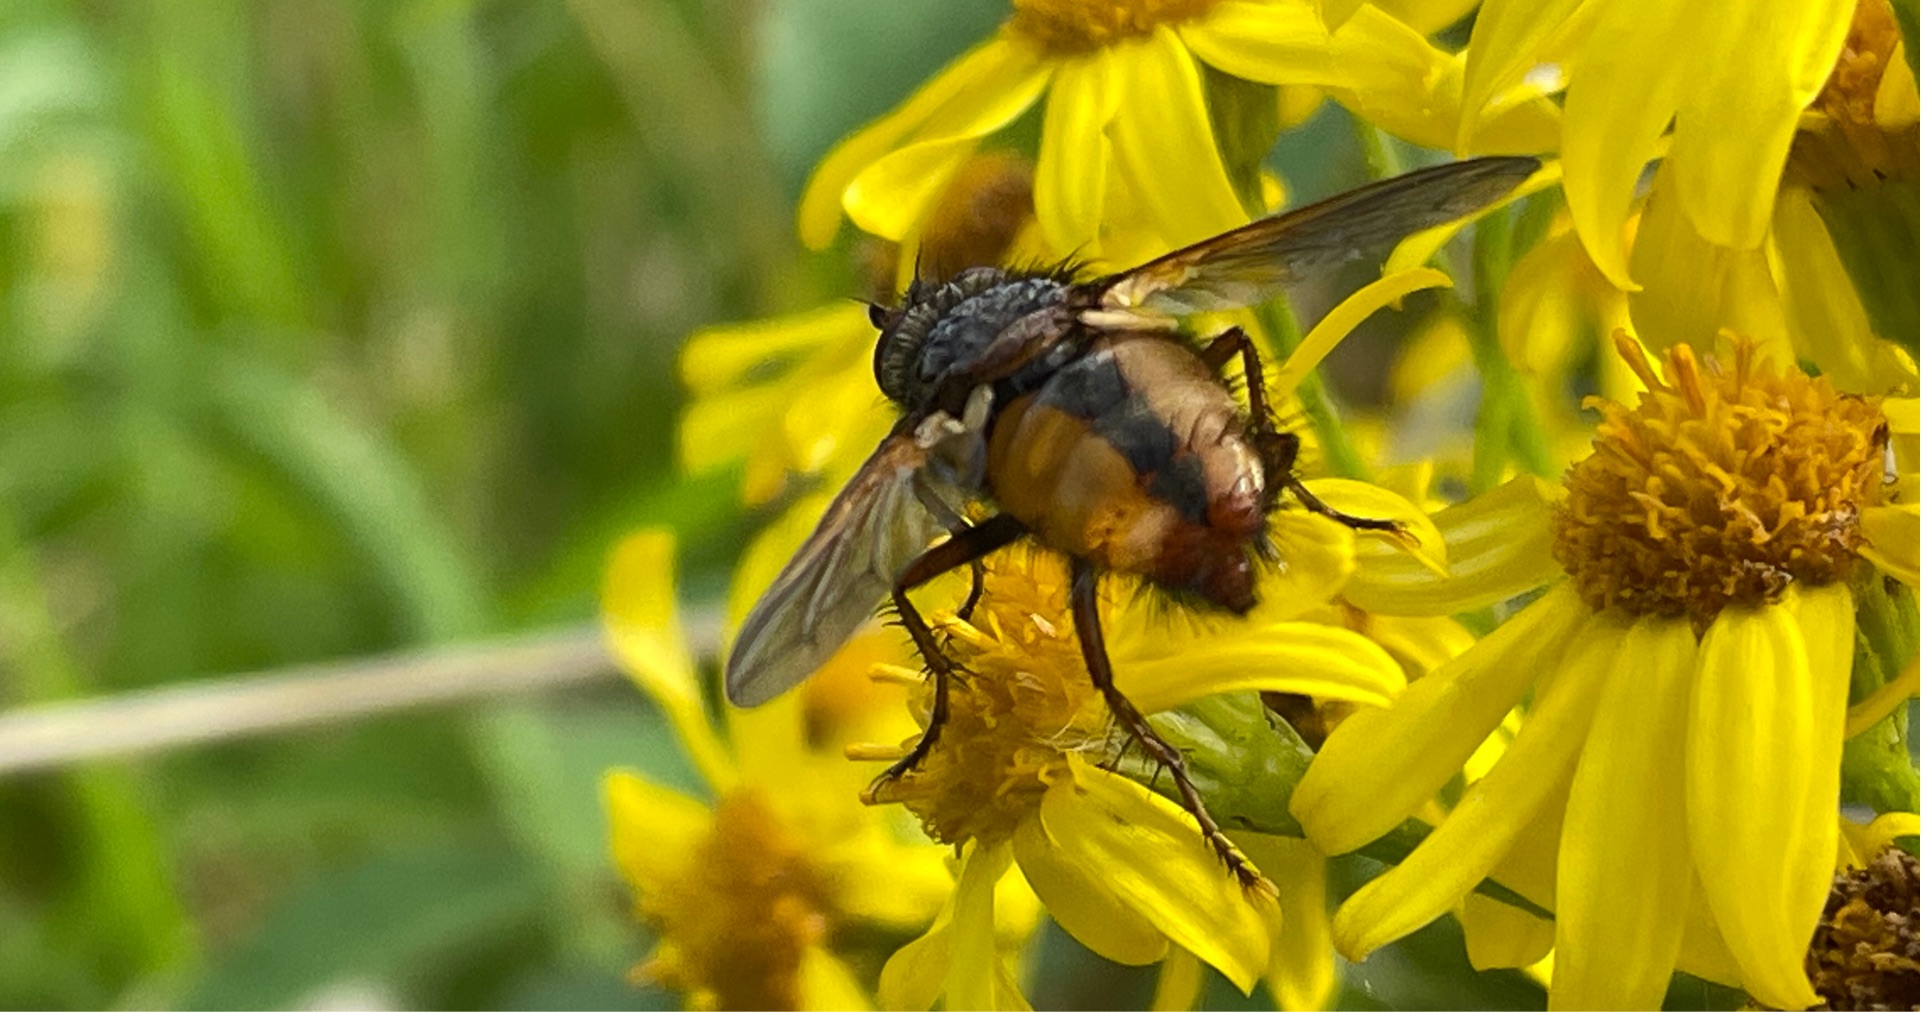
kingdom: Animalia
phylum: Arthropoda
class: Insecta
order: Diptera
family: Tachinidae
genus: Tachina
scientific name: Tachina fera
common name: Mellemfluen oskar
